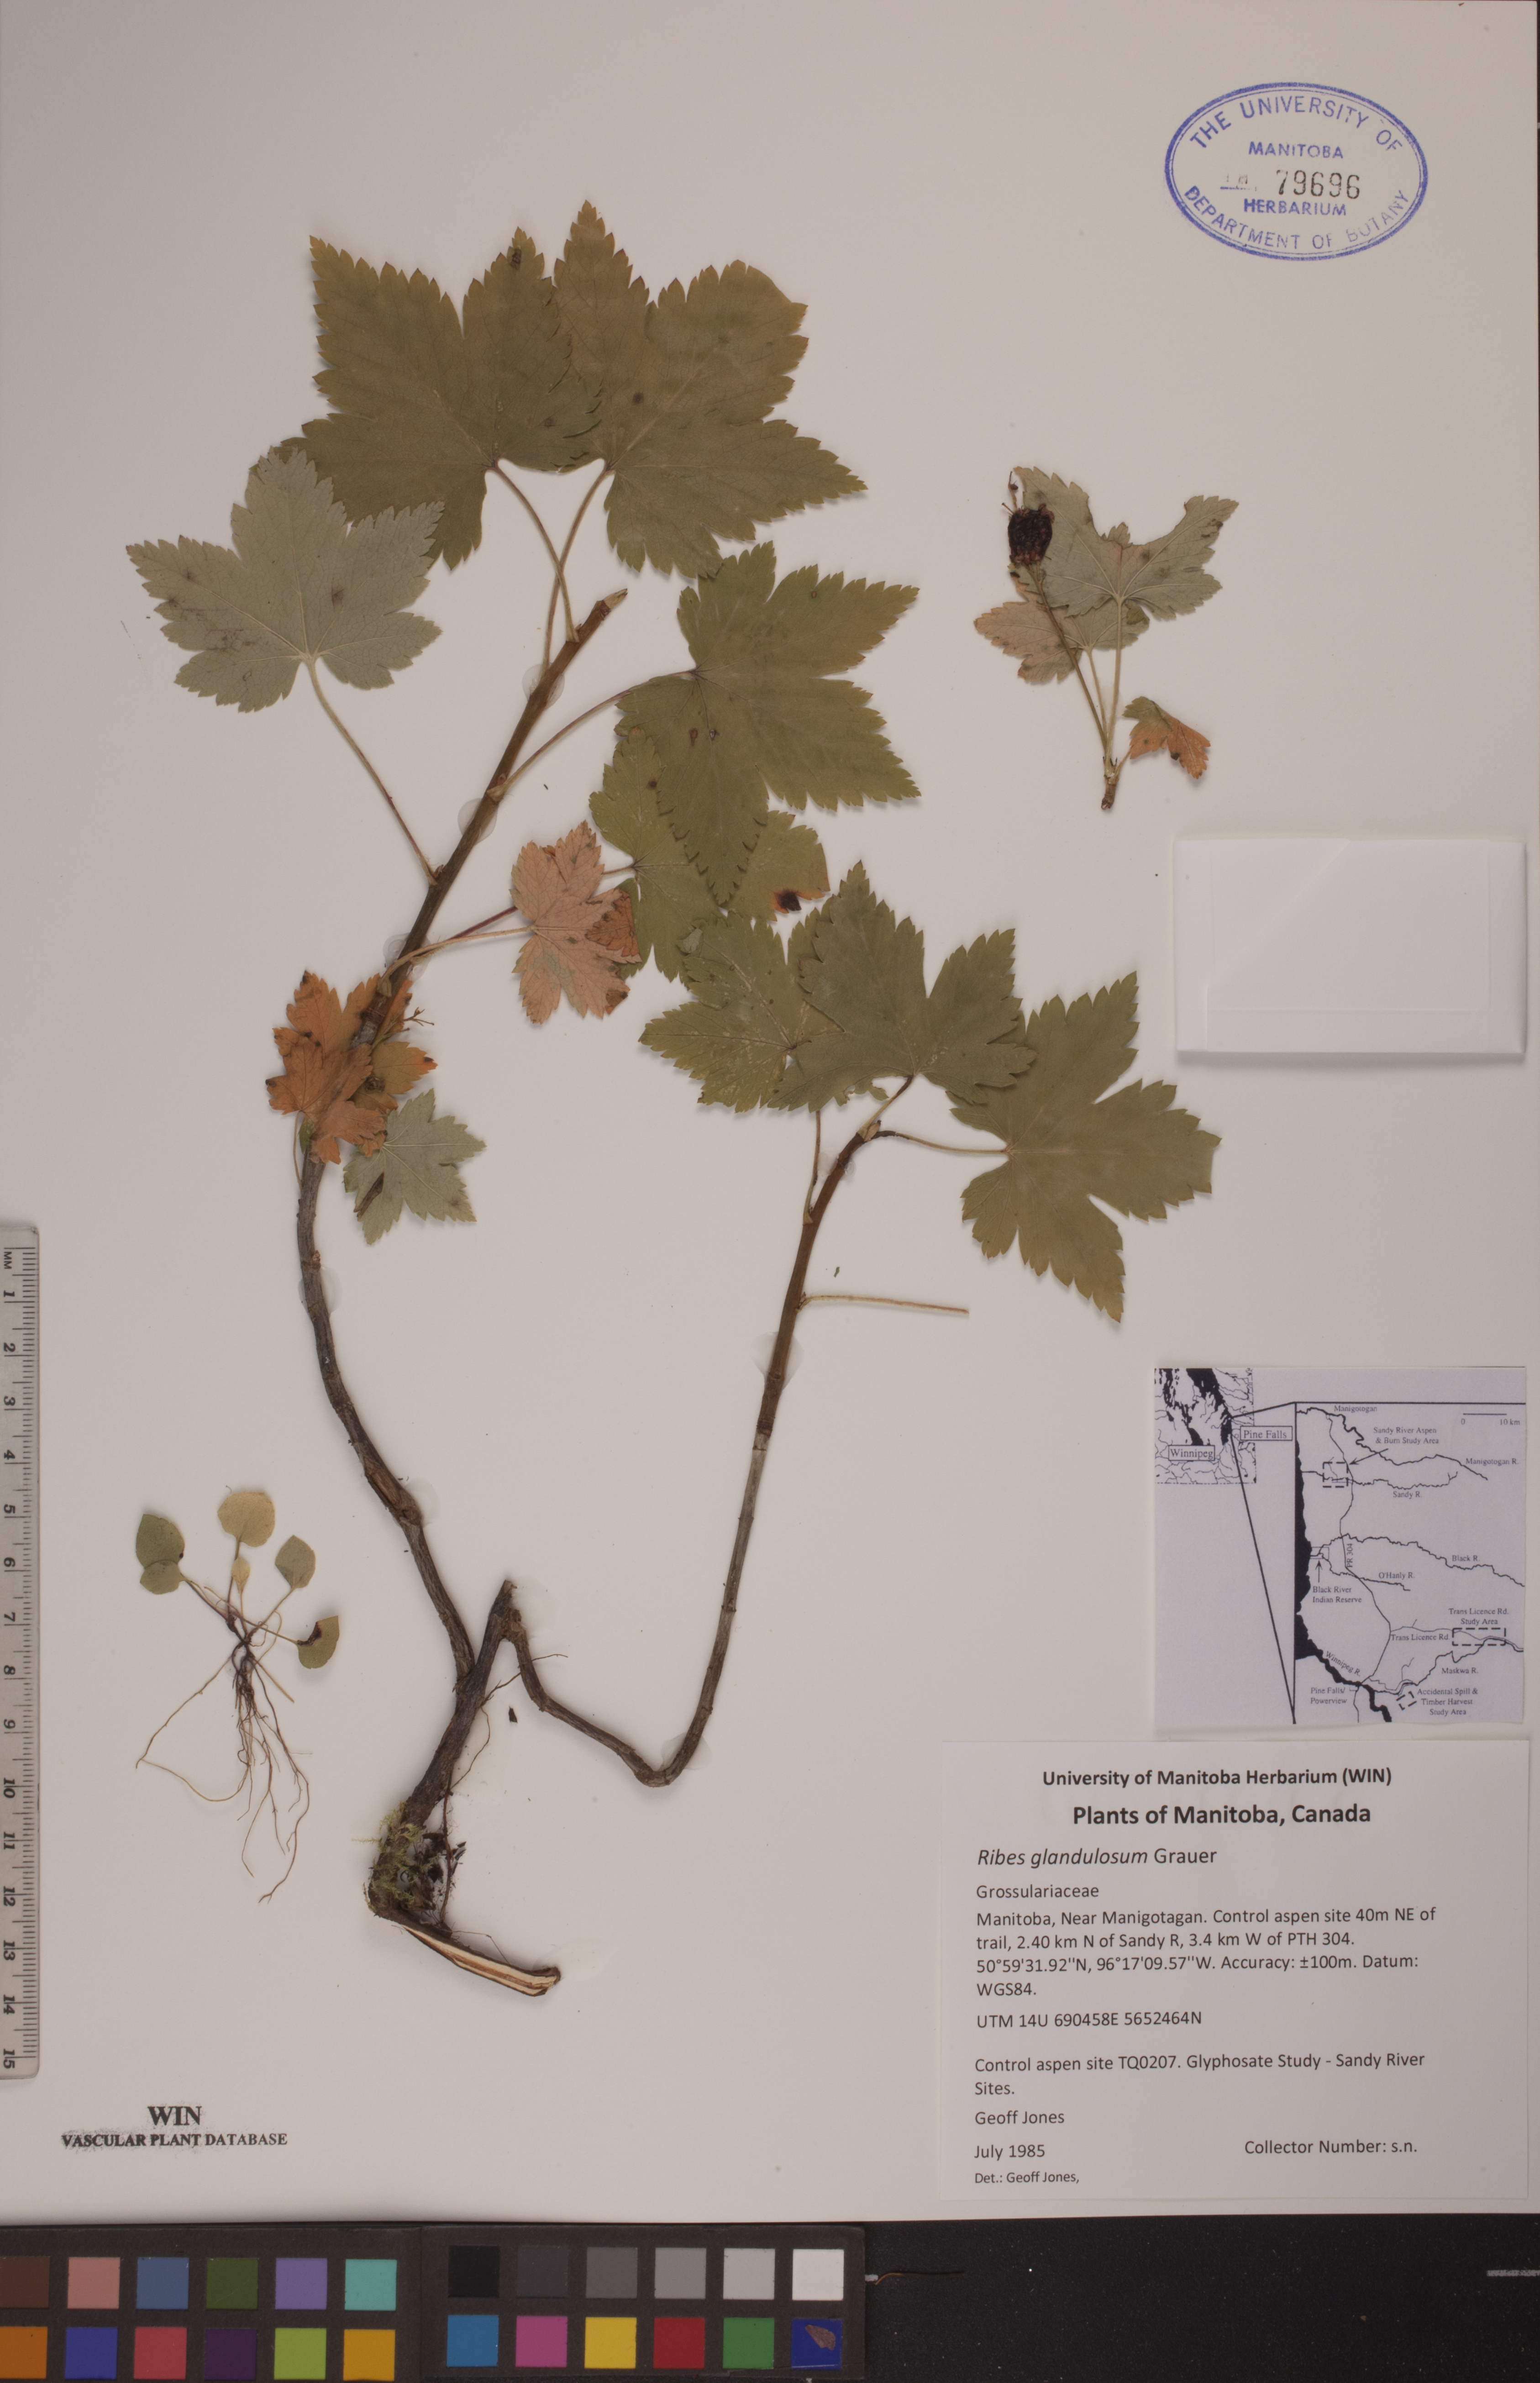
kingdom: Plantae
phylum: Tracheophyta
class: Magnoliopsida
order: Saxifragales
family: Grossulariaceae
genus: Ribes
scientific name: Ribes glandulosum
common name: Skunk currant
